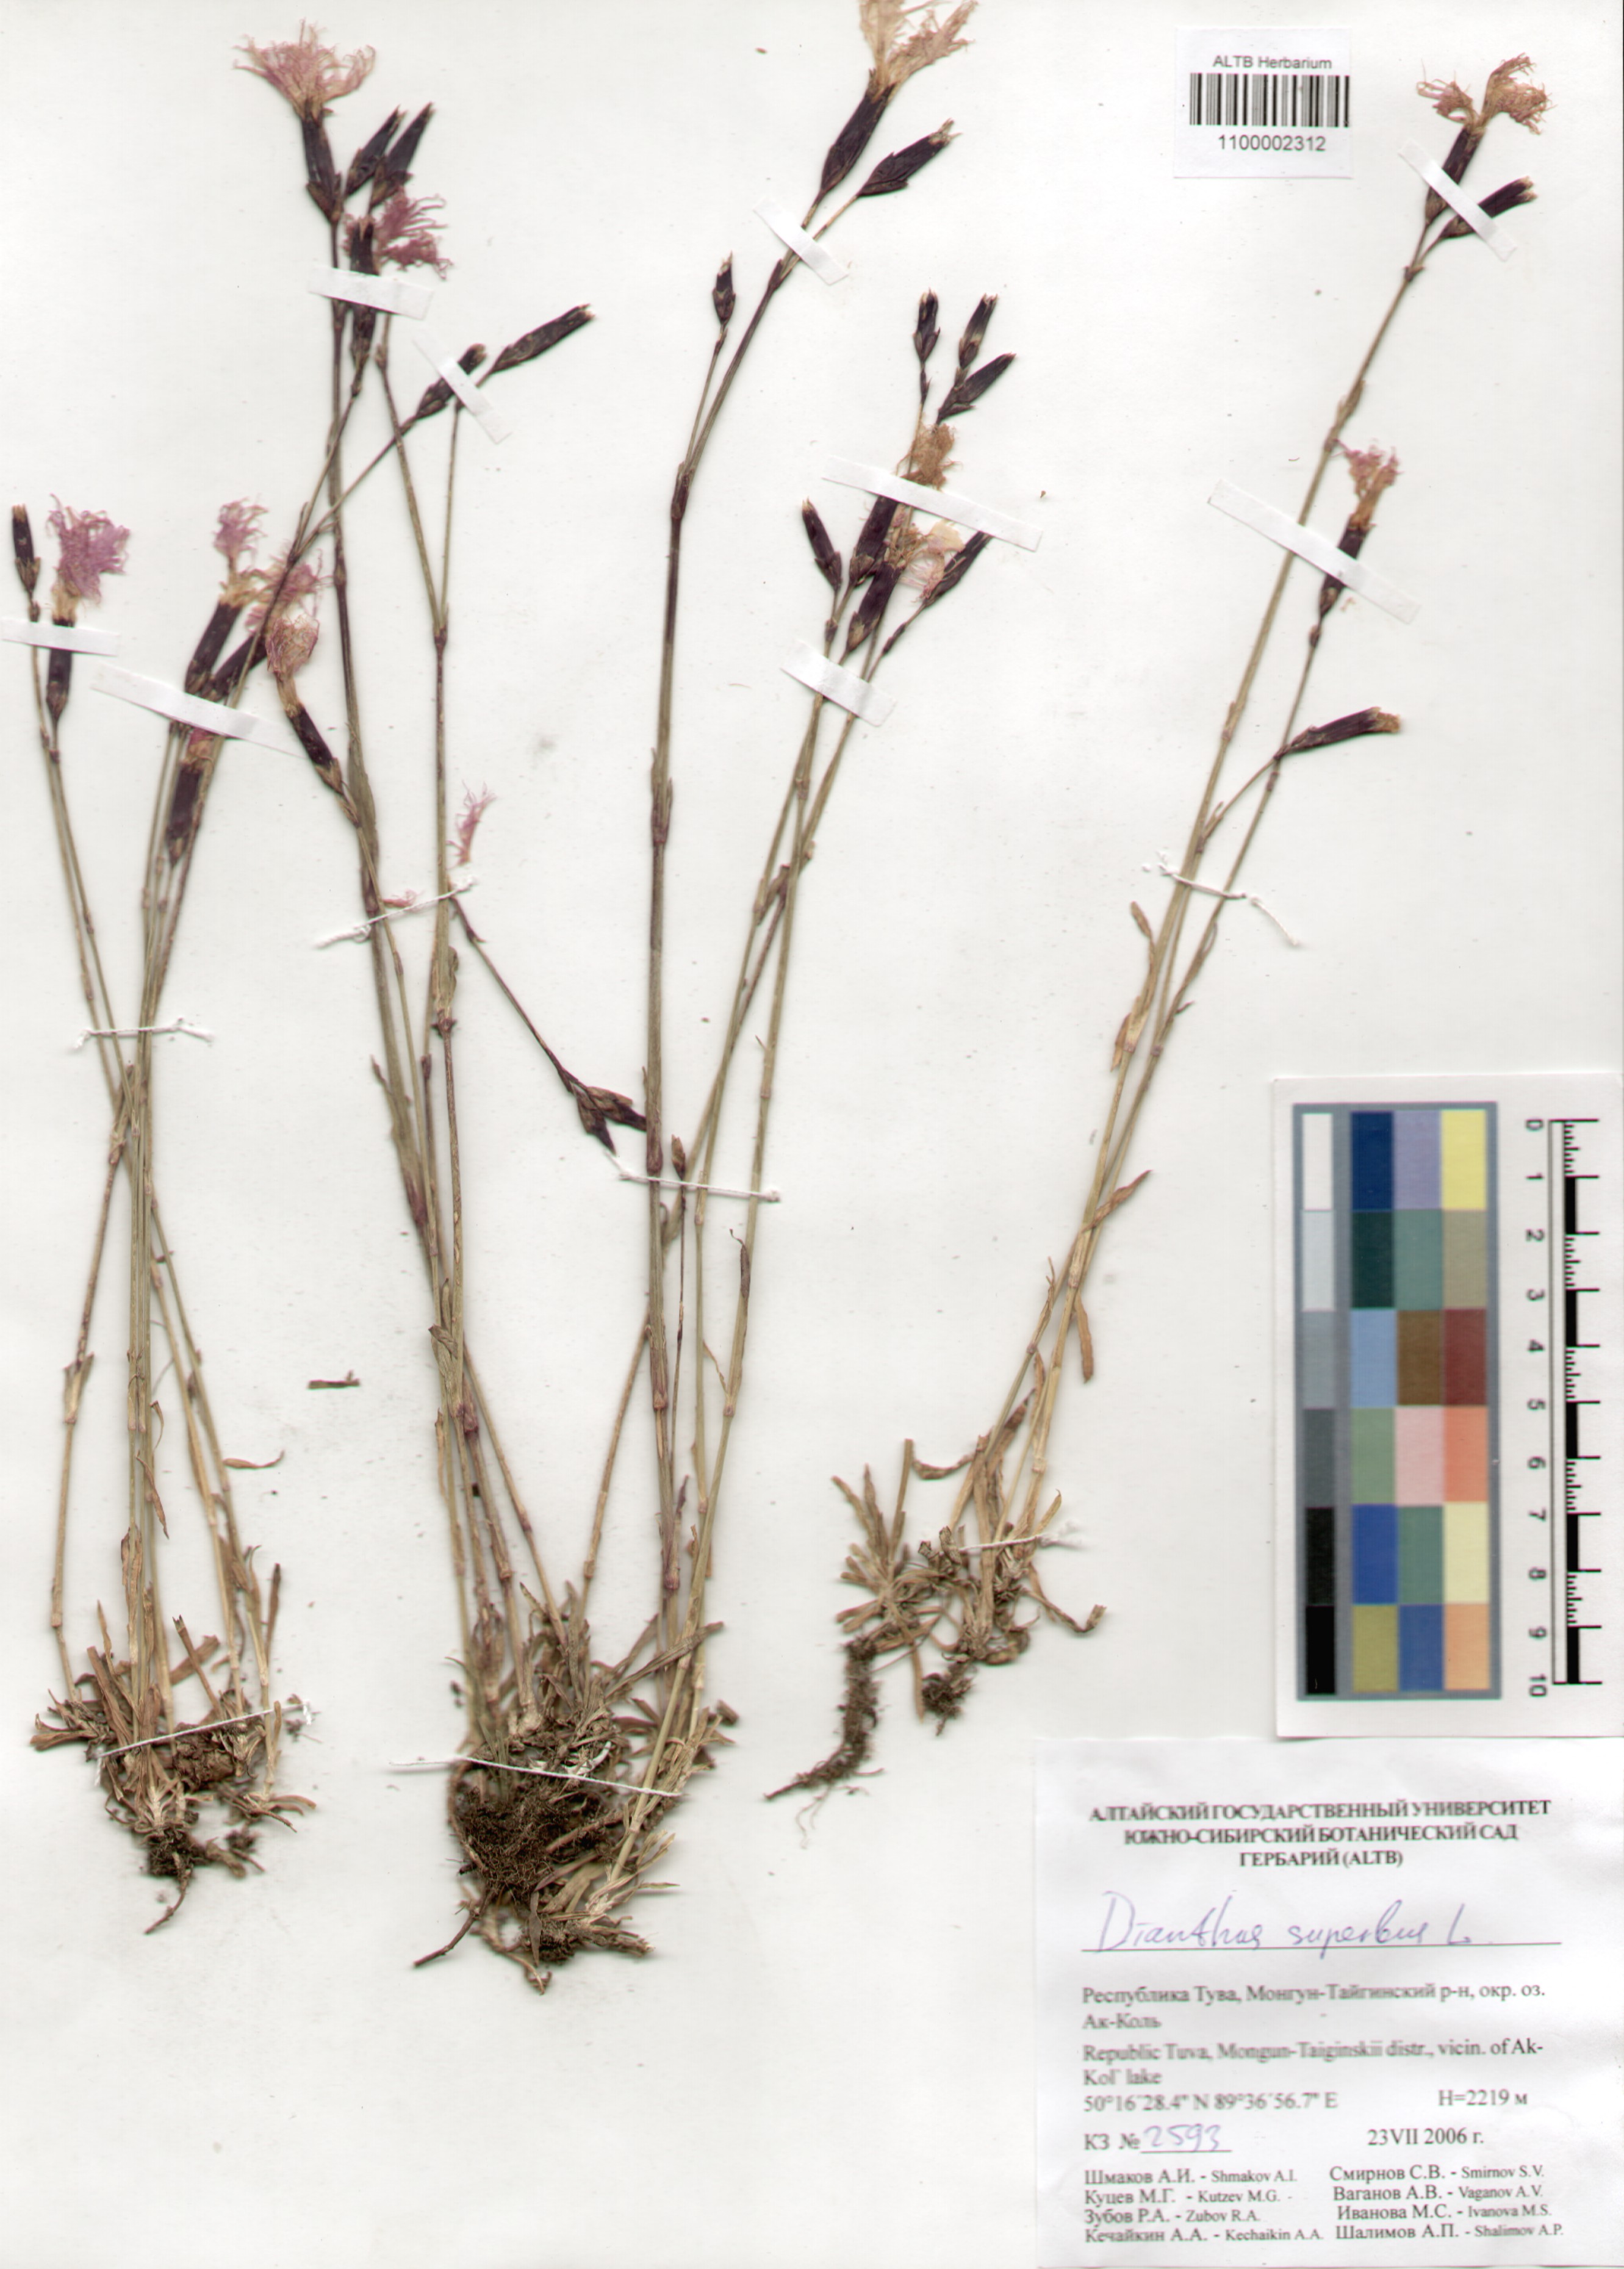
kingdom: Plantae
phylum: Tracheophyta
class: Magnoliopsida
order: Caryophyllales
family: Caryophyllaceae
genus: Dianthus
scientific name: Dianthus superbus
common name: Fringed pink
